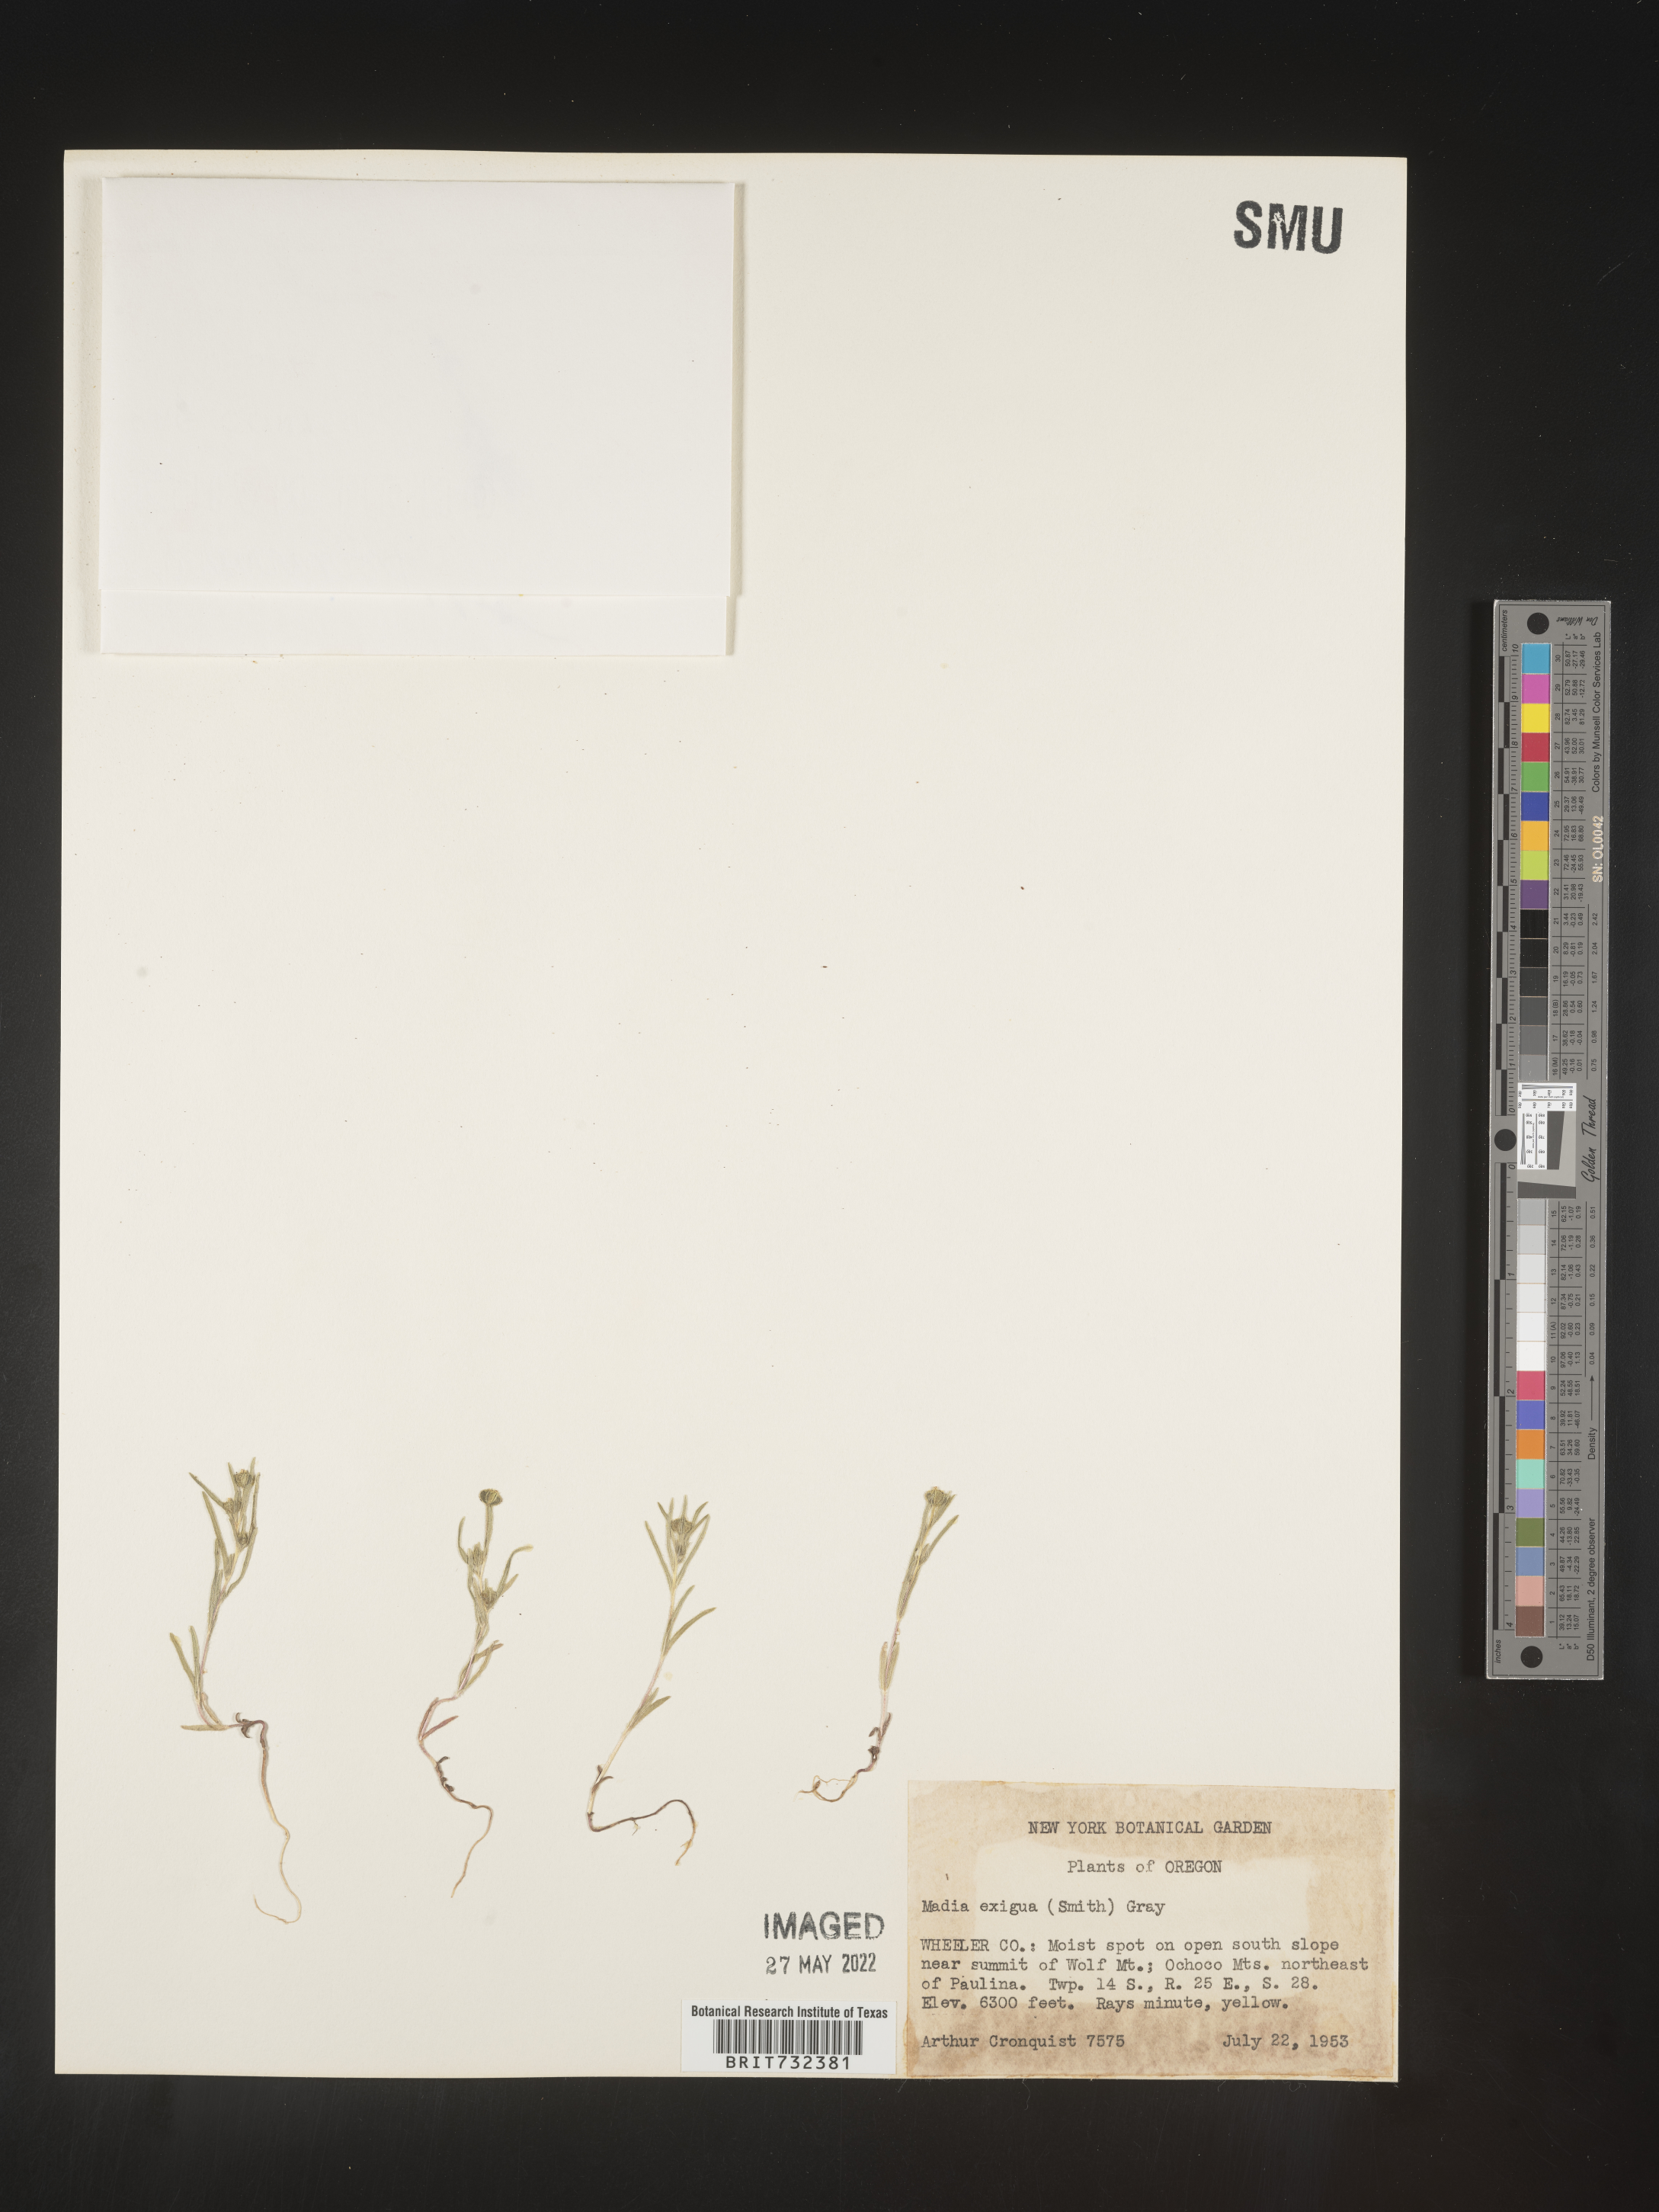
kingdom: Plantae
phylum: Tracheophyta
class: Magnoliopsida
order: Asterales
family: Asteraceae
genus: Madia
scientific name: Madia
